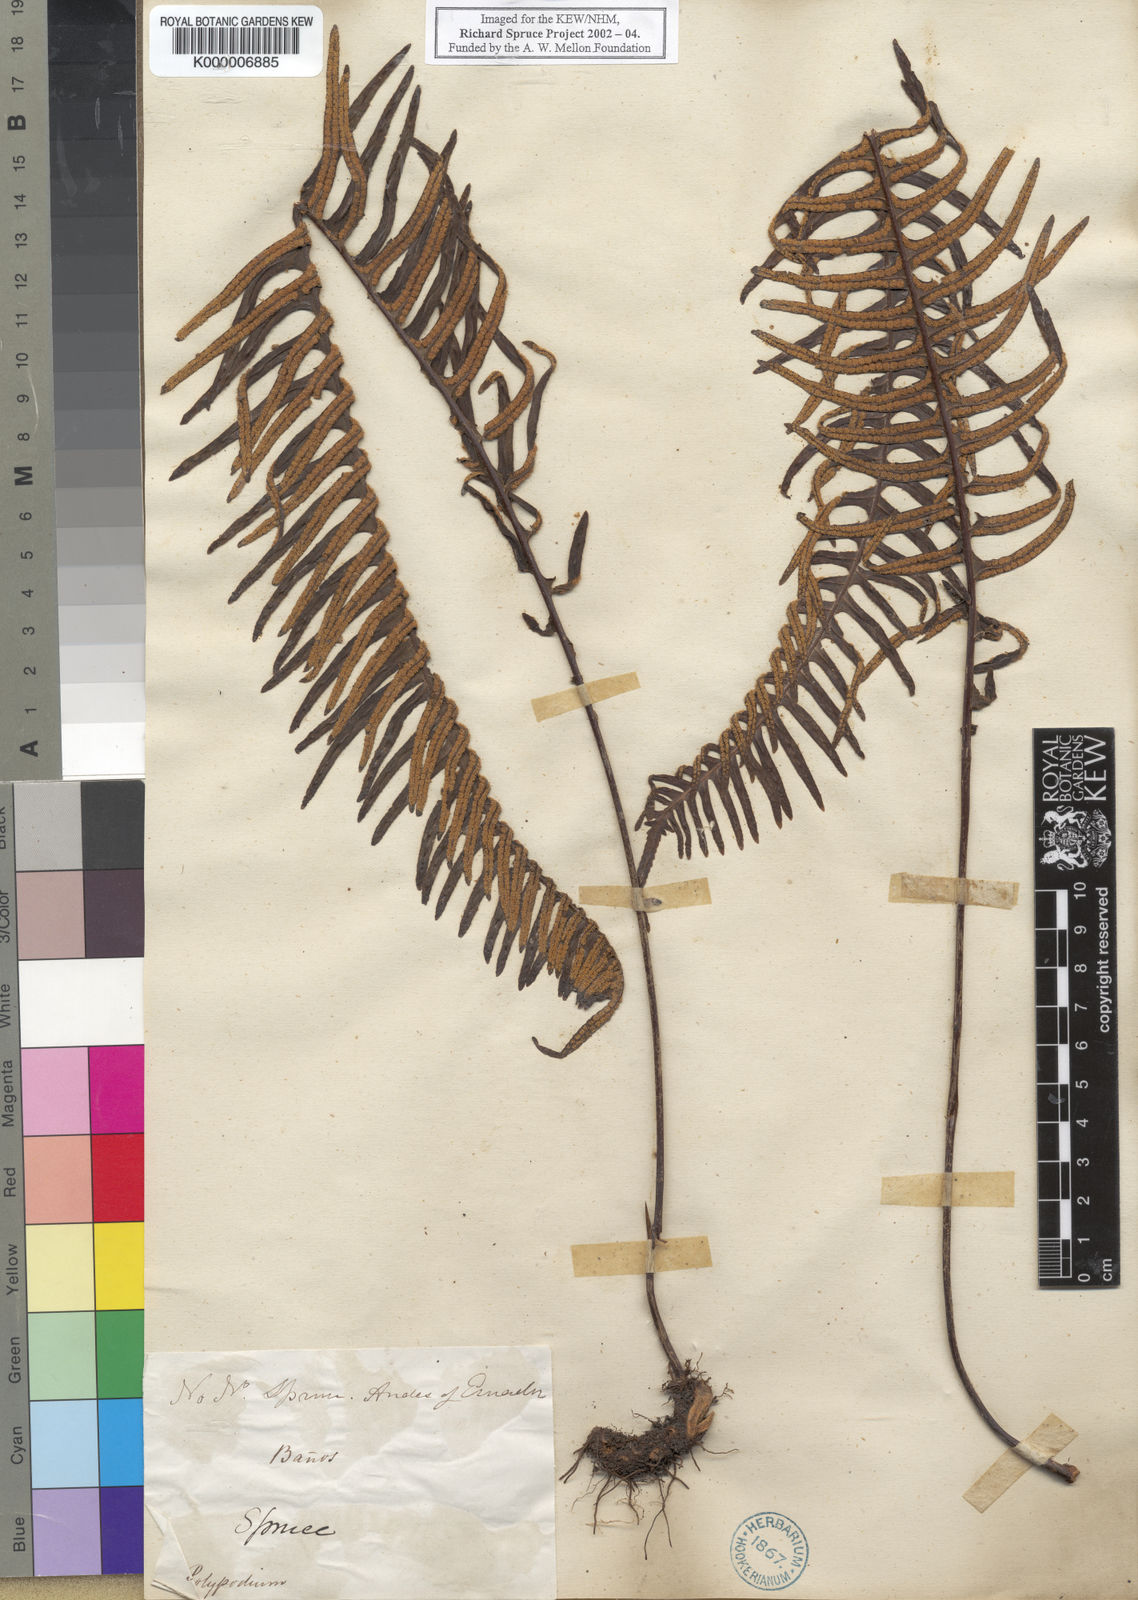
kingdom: Plantae
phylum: Tracheophyta
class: Polypodiopsida
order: Polypodiales
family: Polypodiaceae
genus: Pecluma
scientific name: Pecluma camptophyllaria
